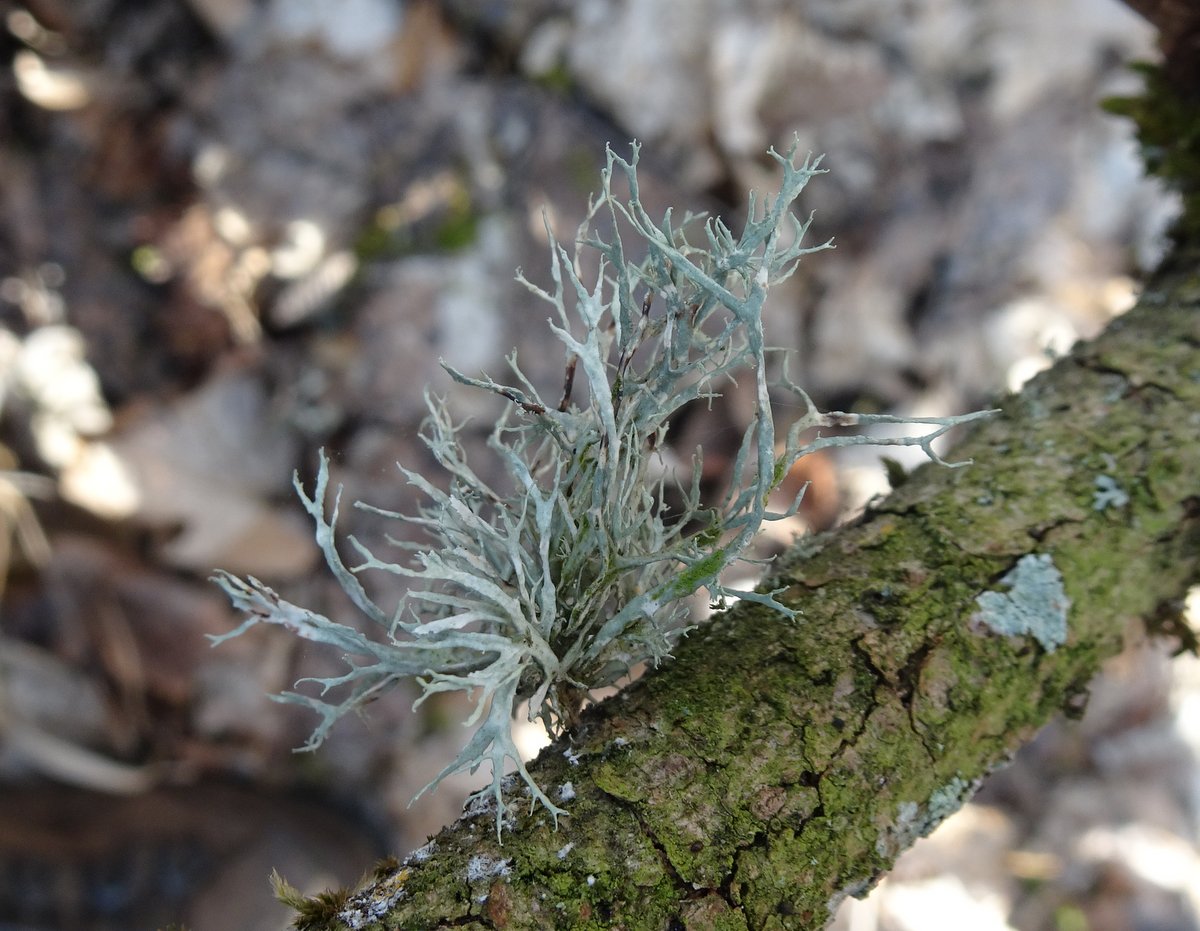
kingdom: Fungi
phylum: Ascomycota
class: Lecanoromycetes
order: Lecanorales
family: Ramalinaceae
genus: Ramalina
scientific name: Ramalina farinacea
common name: melet grenlav
